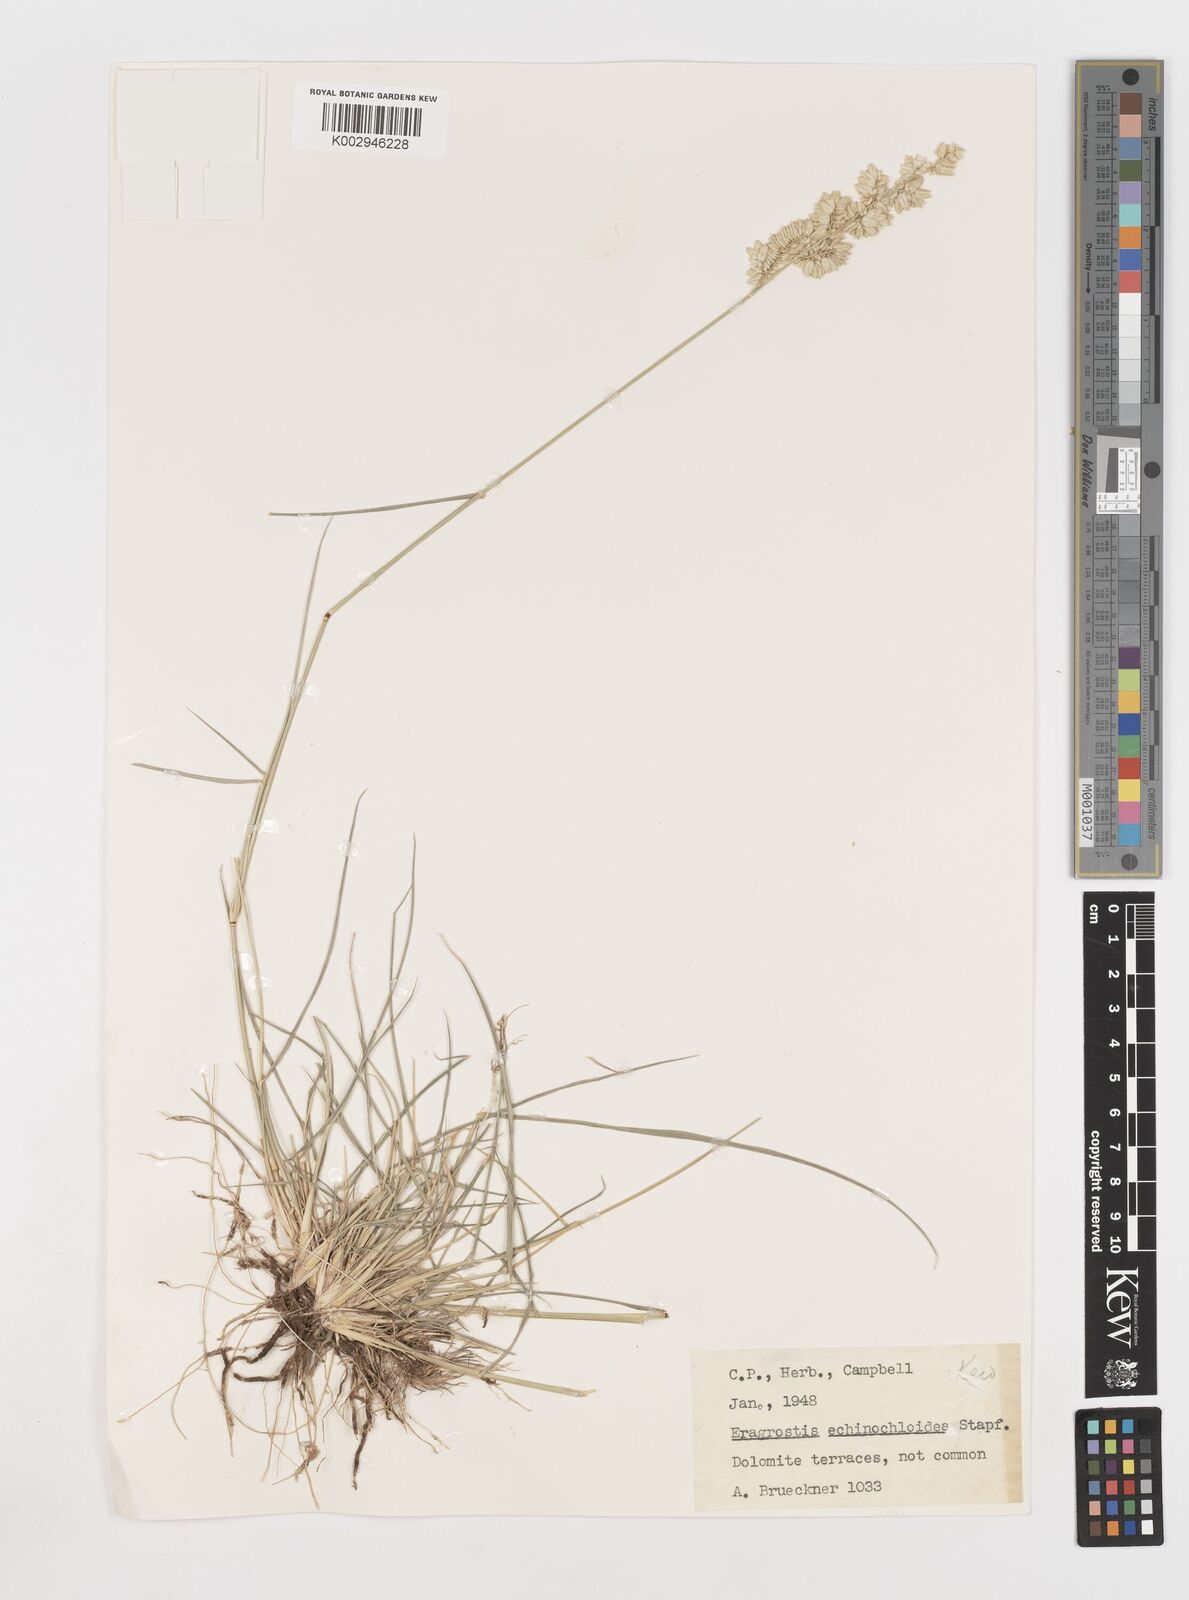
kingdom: Plantae
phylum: Tracheophyta
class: Liliopsida
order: Poales
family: Poaceae
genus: Eragrostis
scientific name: Eragrostis echinochloidea
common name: African lovegrass
